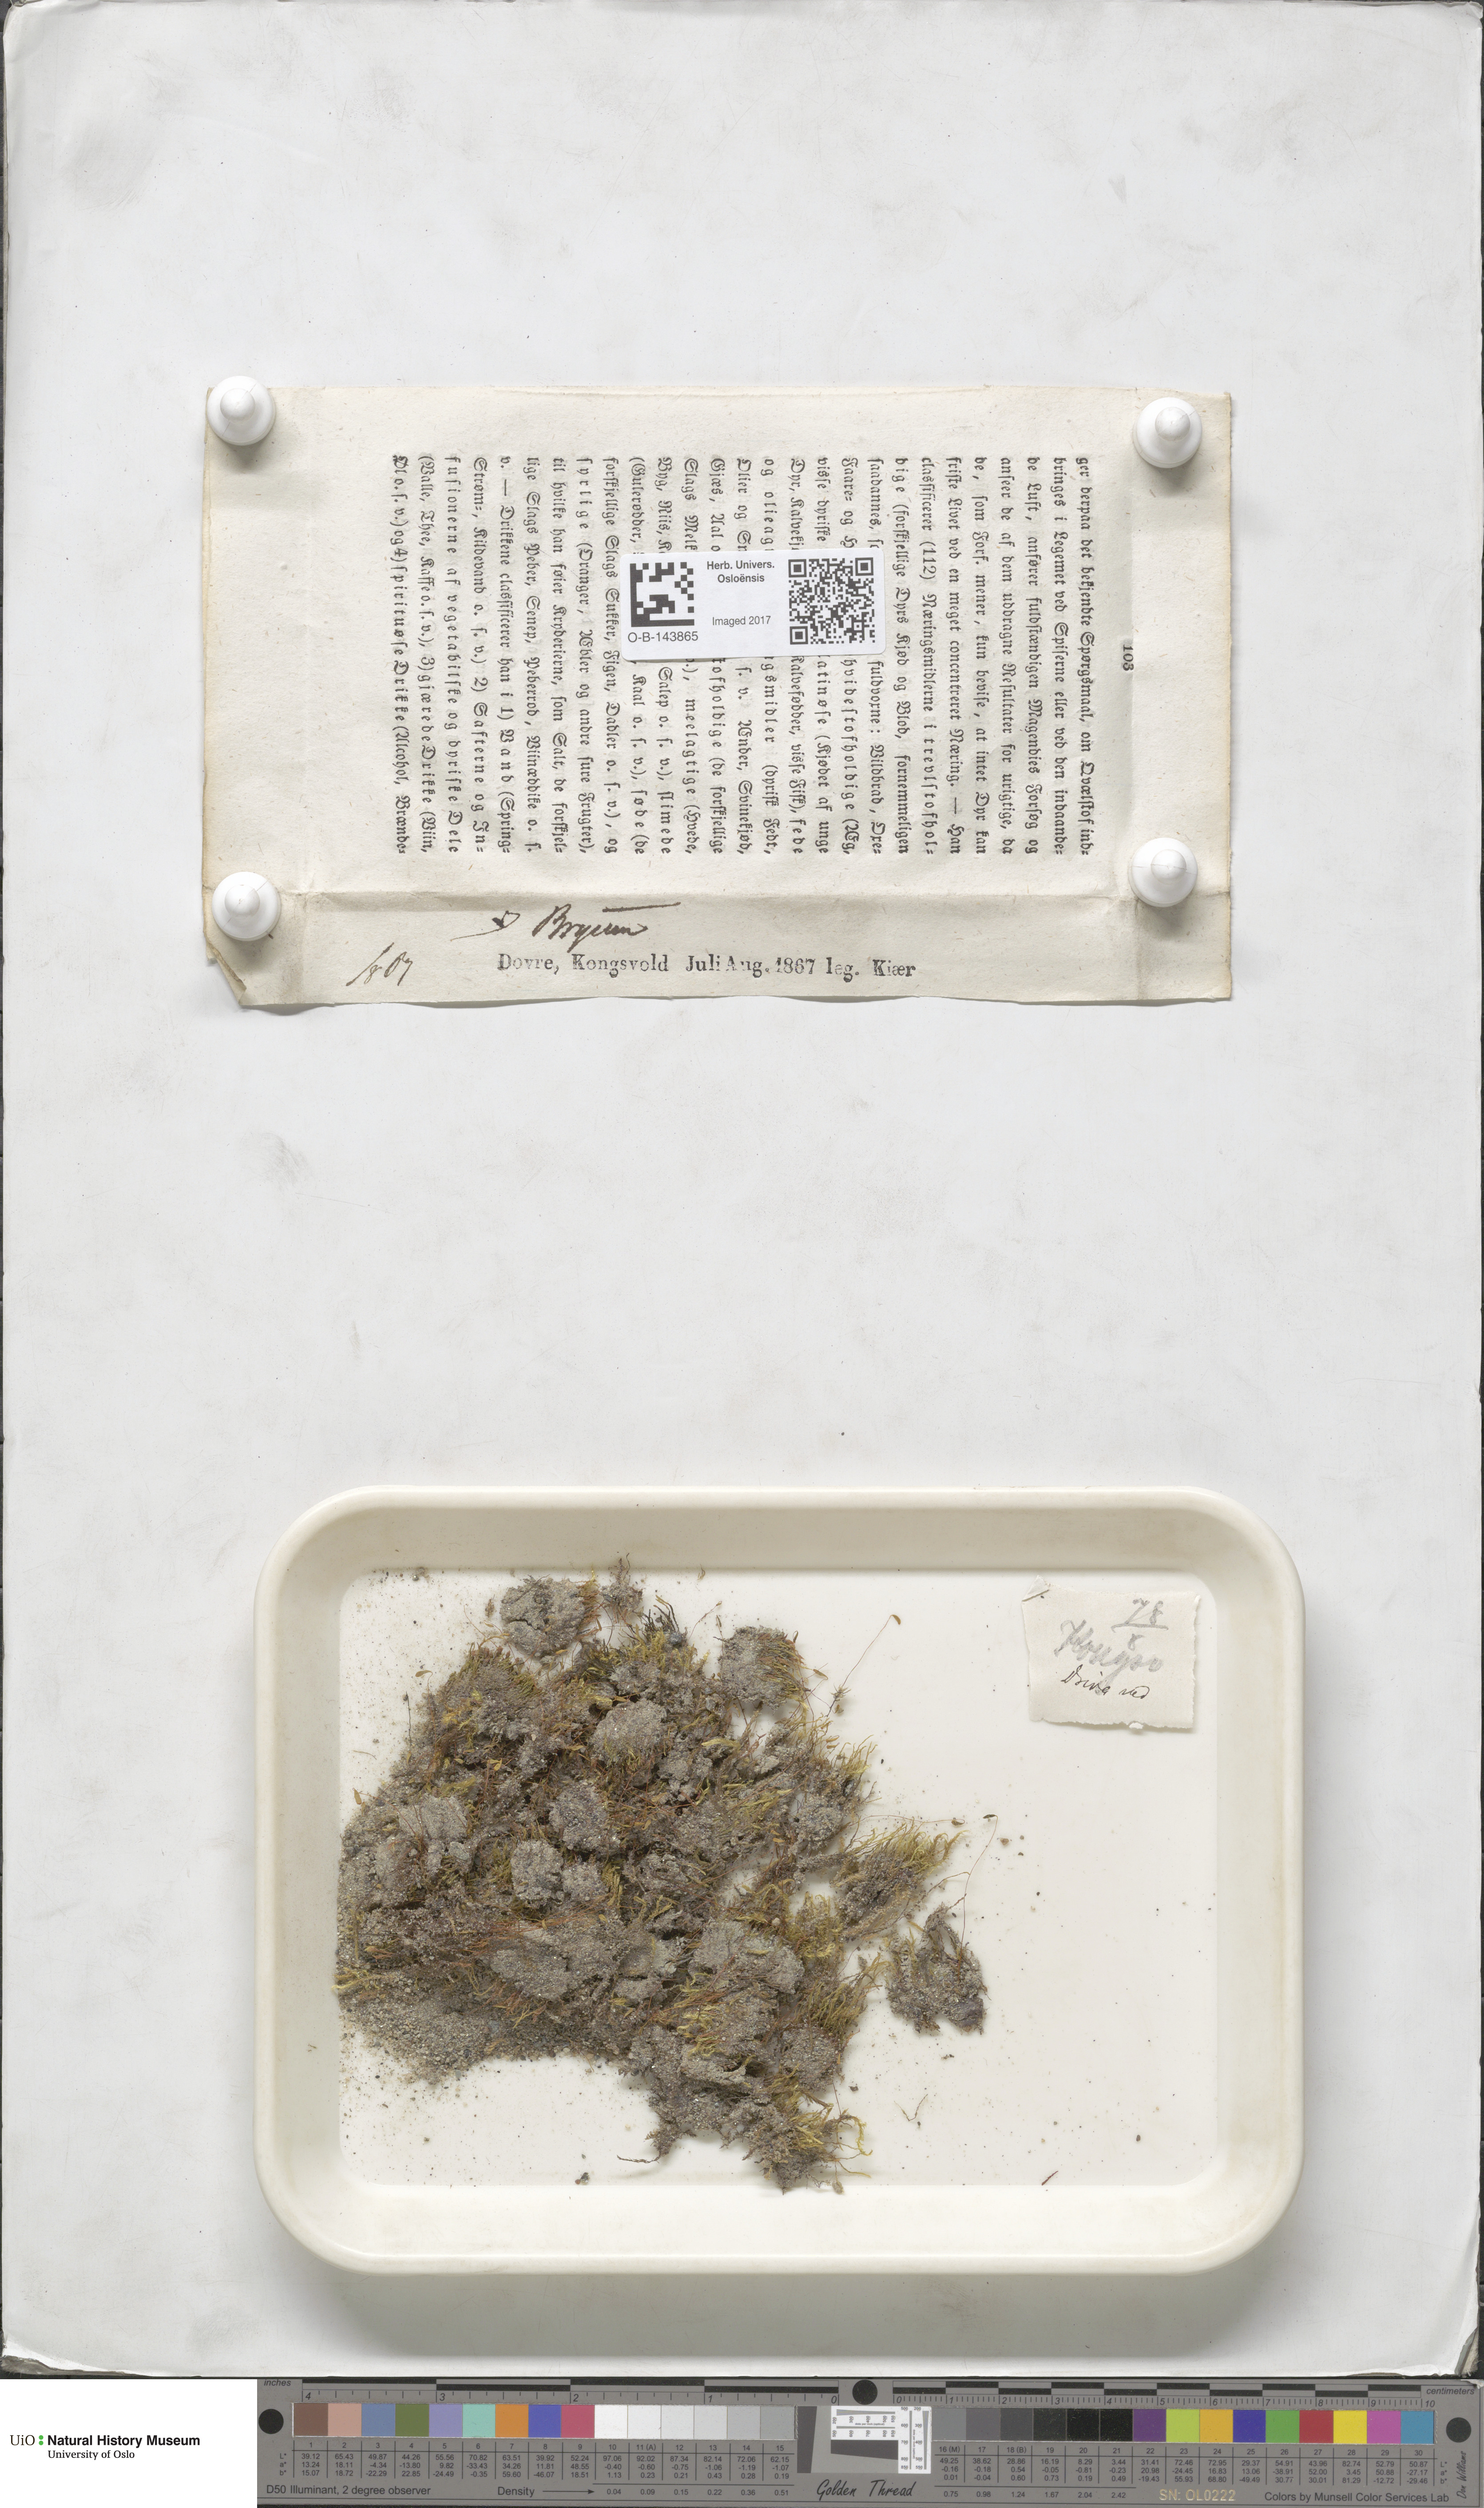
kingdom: Plantae
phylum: Bryophyta
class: Bryopsida
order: Bryales
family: Bryaceae
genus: Bryum
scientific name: Bryum
